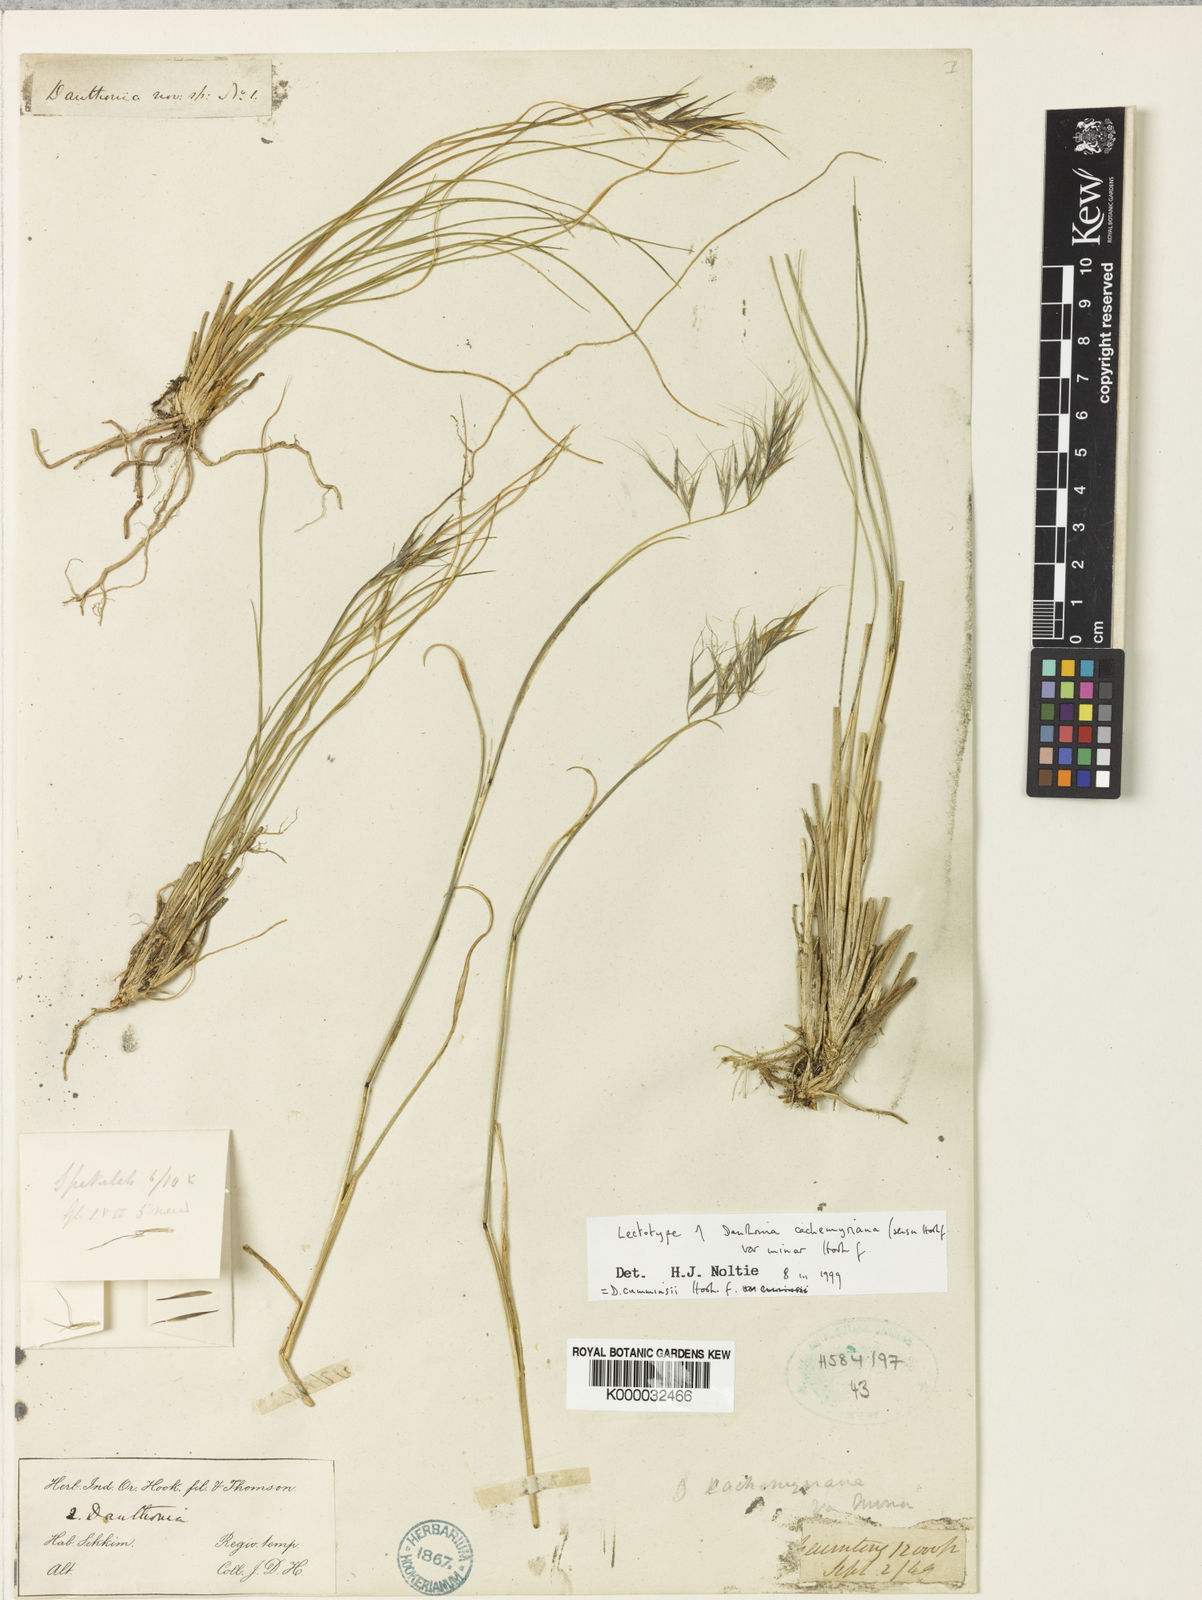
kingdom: Plantae
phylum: Tracheophyta
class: Liliopsida
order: Poales
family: Poaceae
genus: Rytidosperma
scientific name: Rytidosperma
